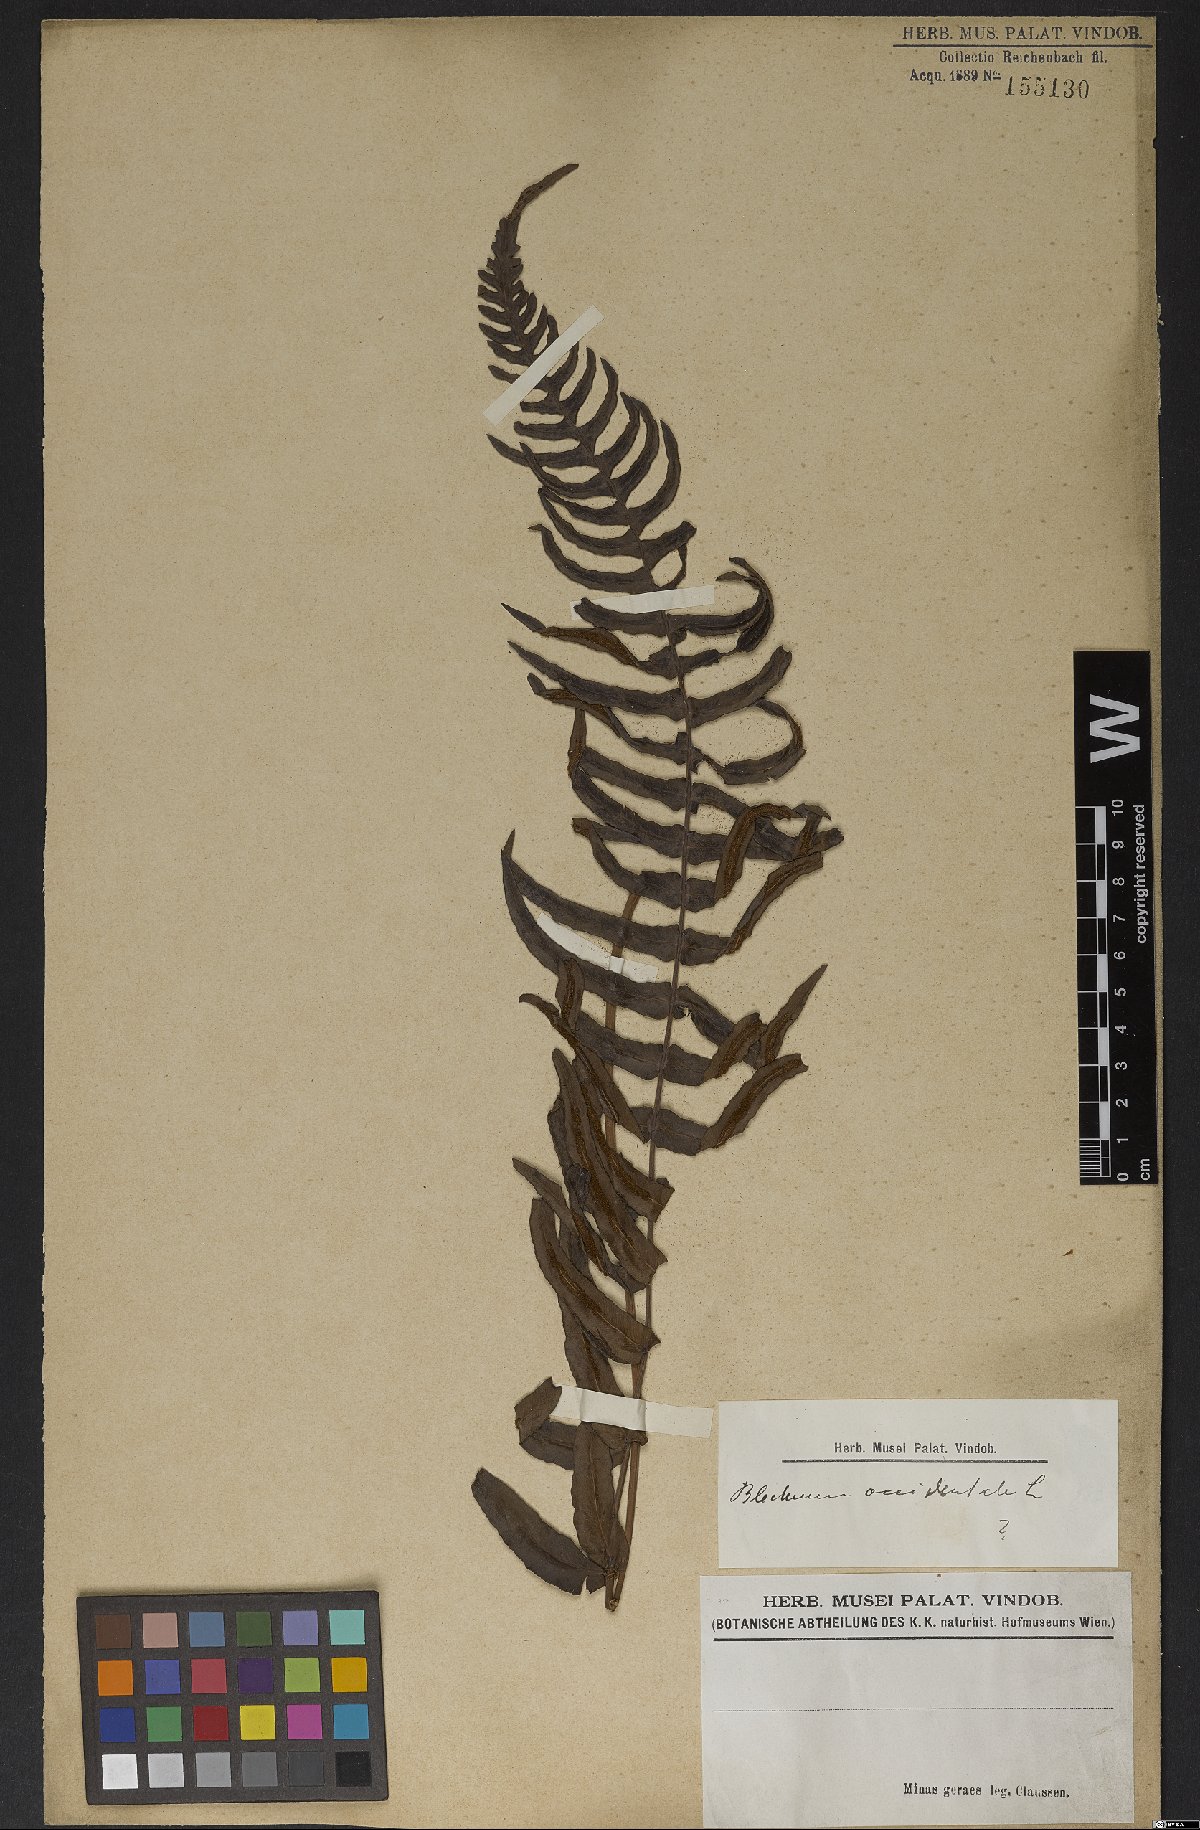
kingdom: Plantae
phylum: Tracheophyta
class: Polypodiopsida
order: Polypodiales
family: Blechnaceae
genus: Blechnum
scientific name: Blechnum occidentale
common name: Hammock fern
